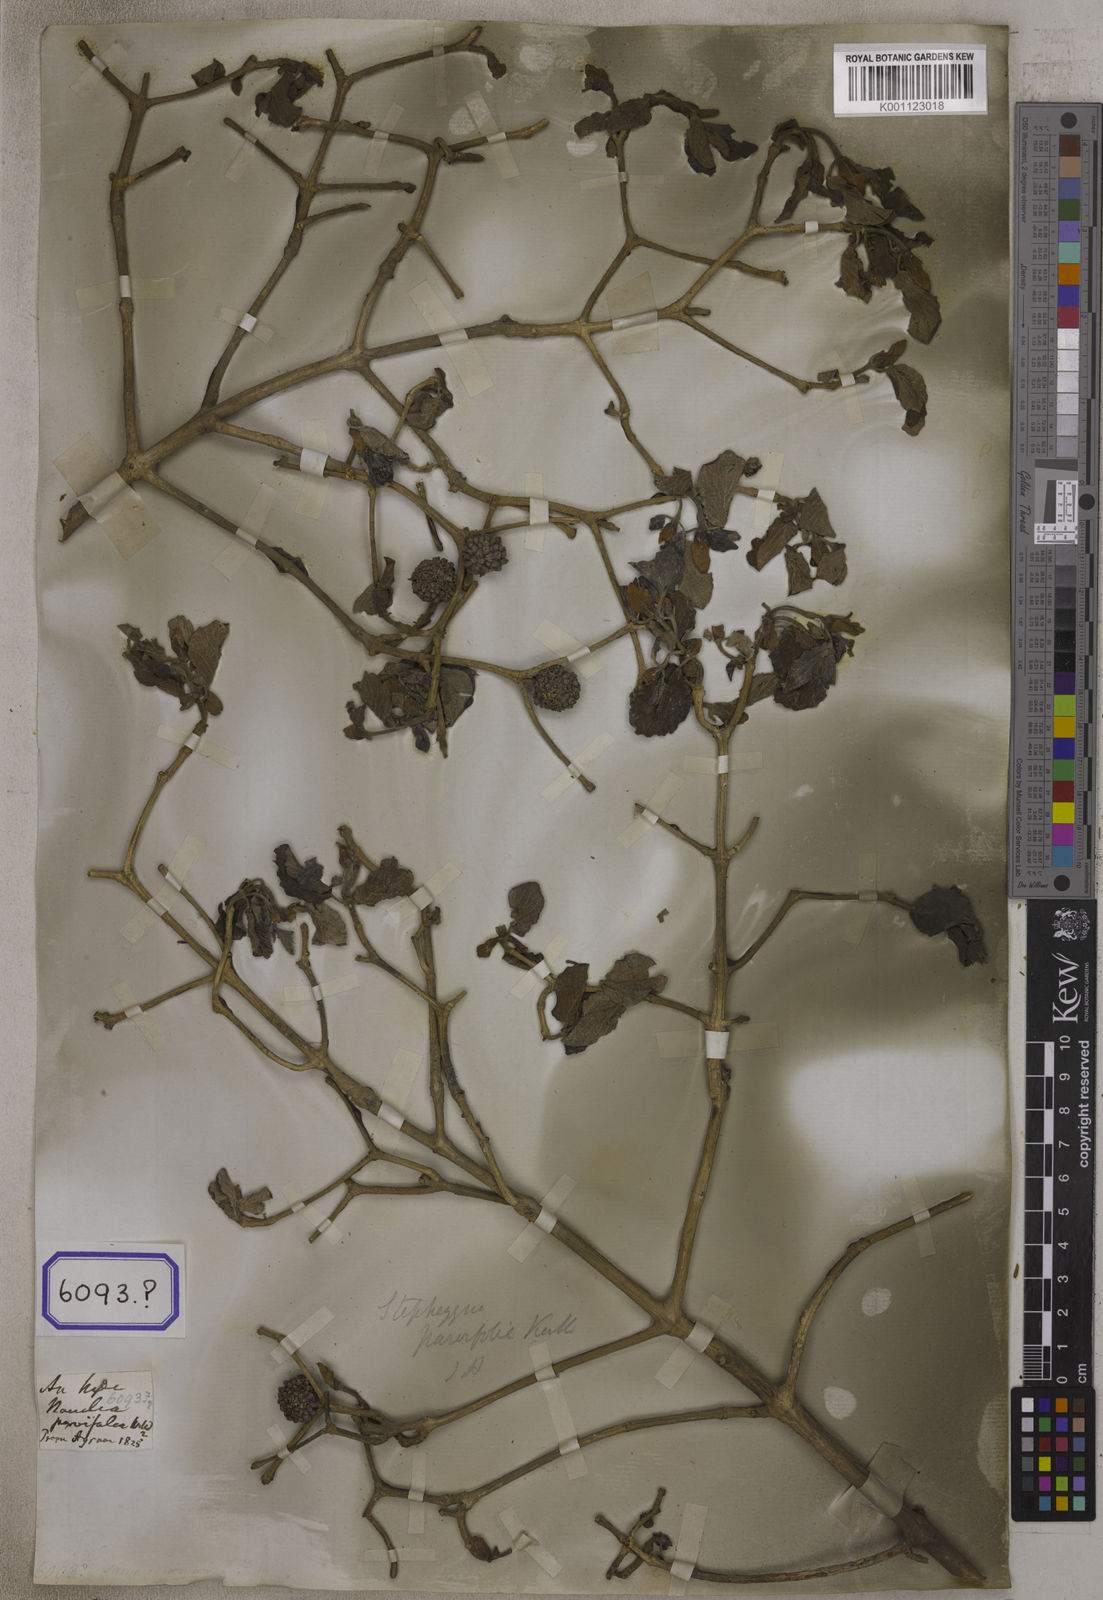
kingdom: Plantae
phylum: Tracheophyta
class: Magnoliopsida
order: Gentianales
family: Rubiaceae
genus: Nauclea
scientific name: Nauclea
